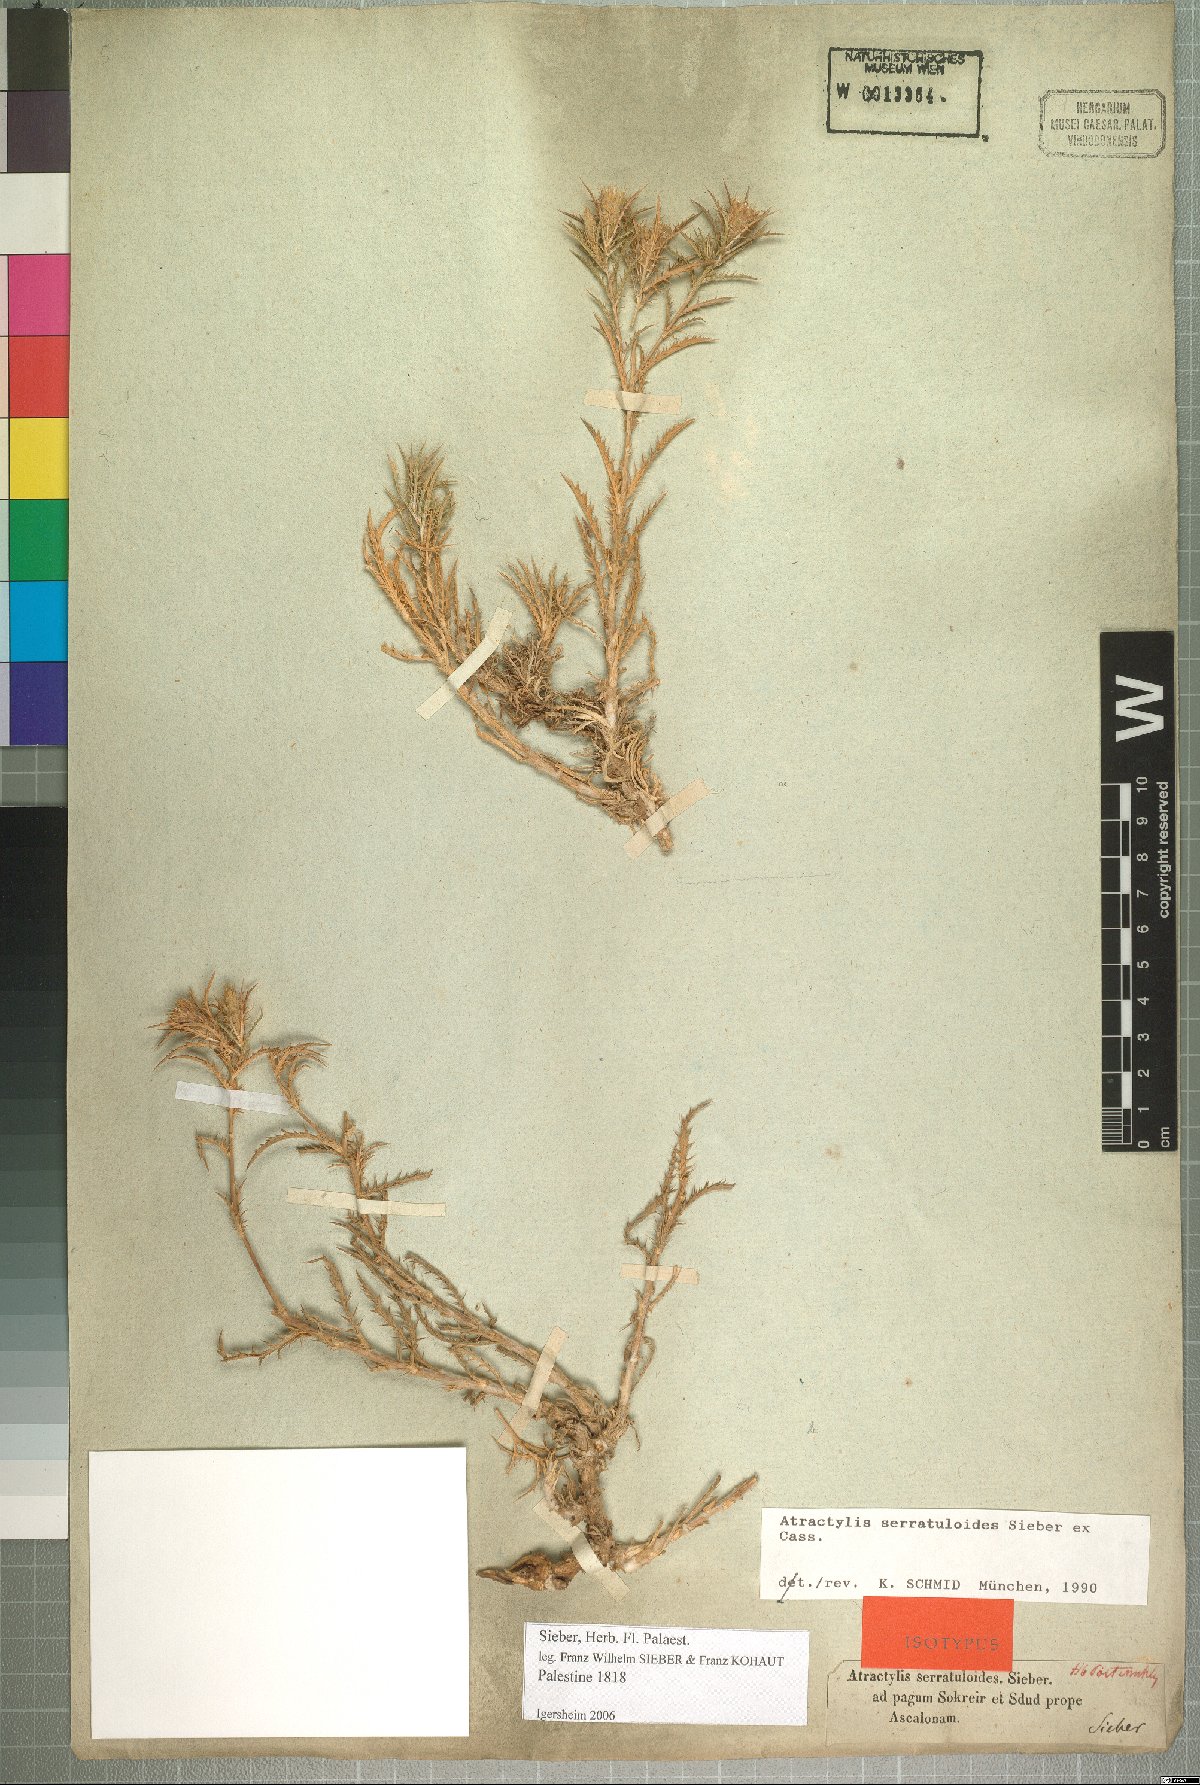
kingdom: Plantae
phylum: Tracheophyta
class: Magnoliopsida
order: Asterales
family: Asteraceae
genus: Atractylis
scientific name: Atractylis serratuloides
